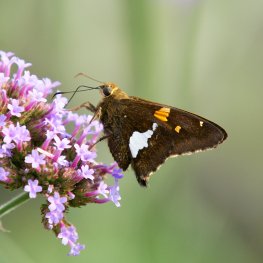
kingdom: Animalia
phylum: Arthropoda
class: Insecta
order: Lepidoptera
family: Hesperiidae
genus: Epargyreus
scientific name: Epargyreus clarus
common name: Silver-spotted Skipper
